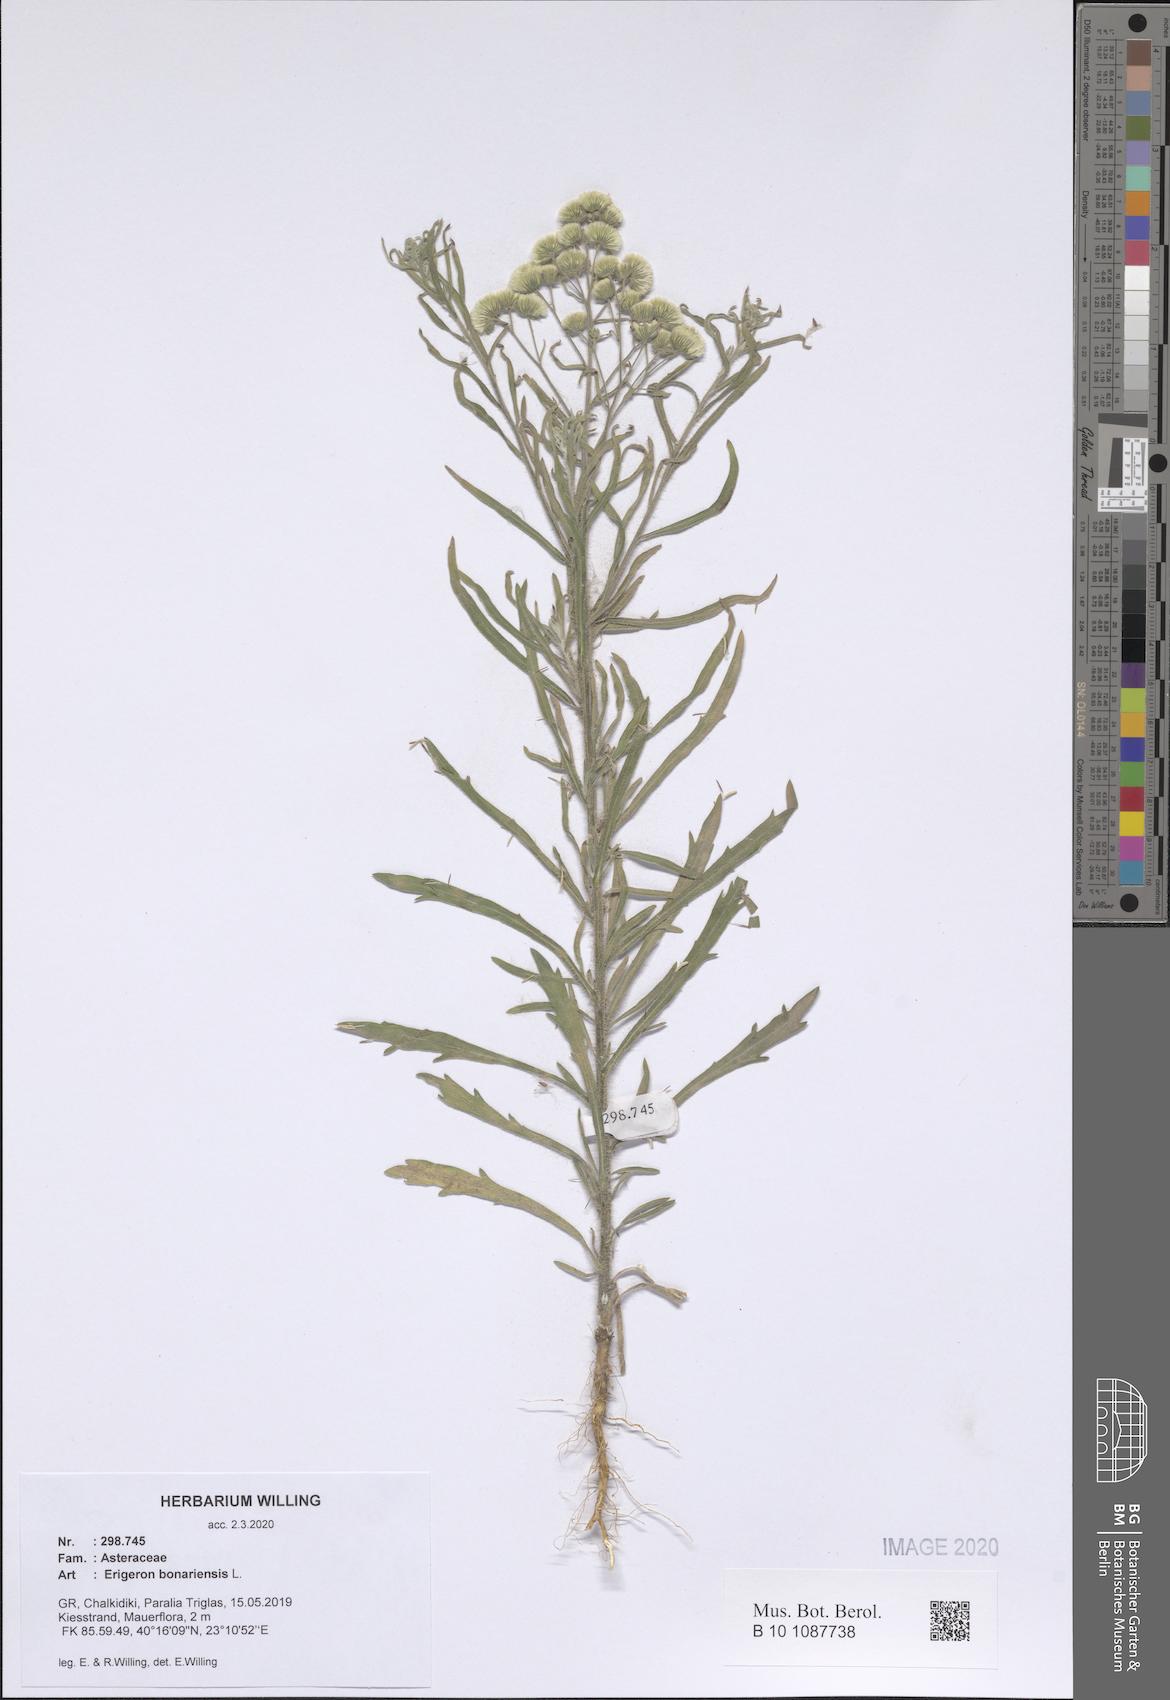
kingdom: Plantae
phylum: Tracheophyta
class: Magnoliopsida
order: Asterales
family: Asteraceae
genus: Erigeron
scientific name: Erigeron bonariensis
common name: Argentine fleabane
